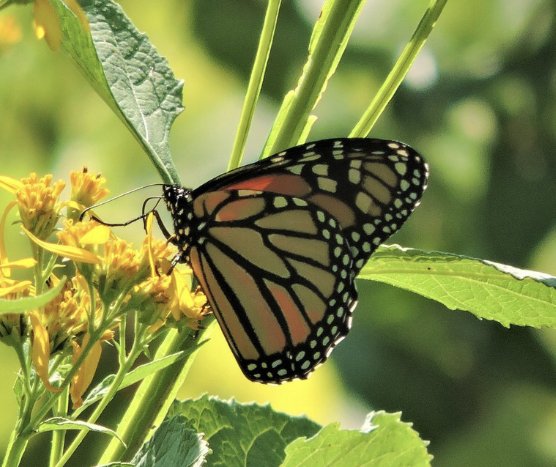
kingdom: Animalia
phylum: Arthropoda
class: Insecta
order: Lepidoptera
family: Nymphalidae
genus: Danaus
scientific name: Danaus plexippus
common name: Monarch
